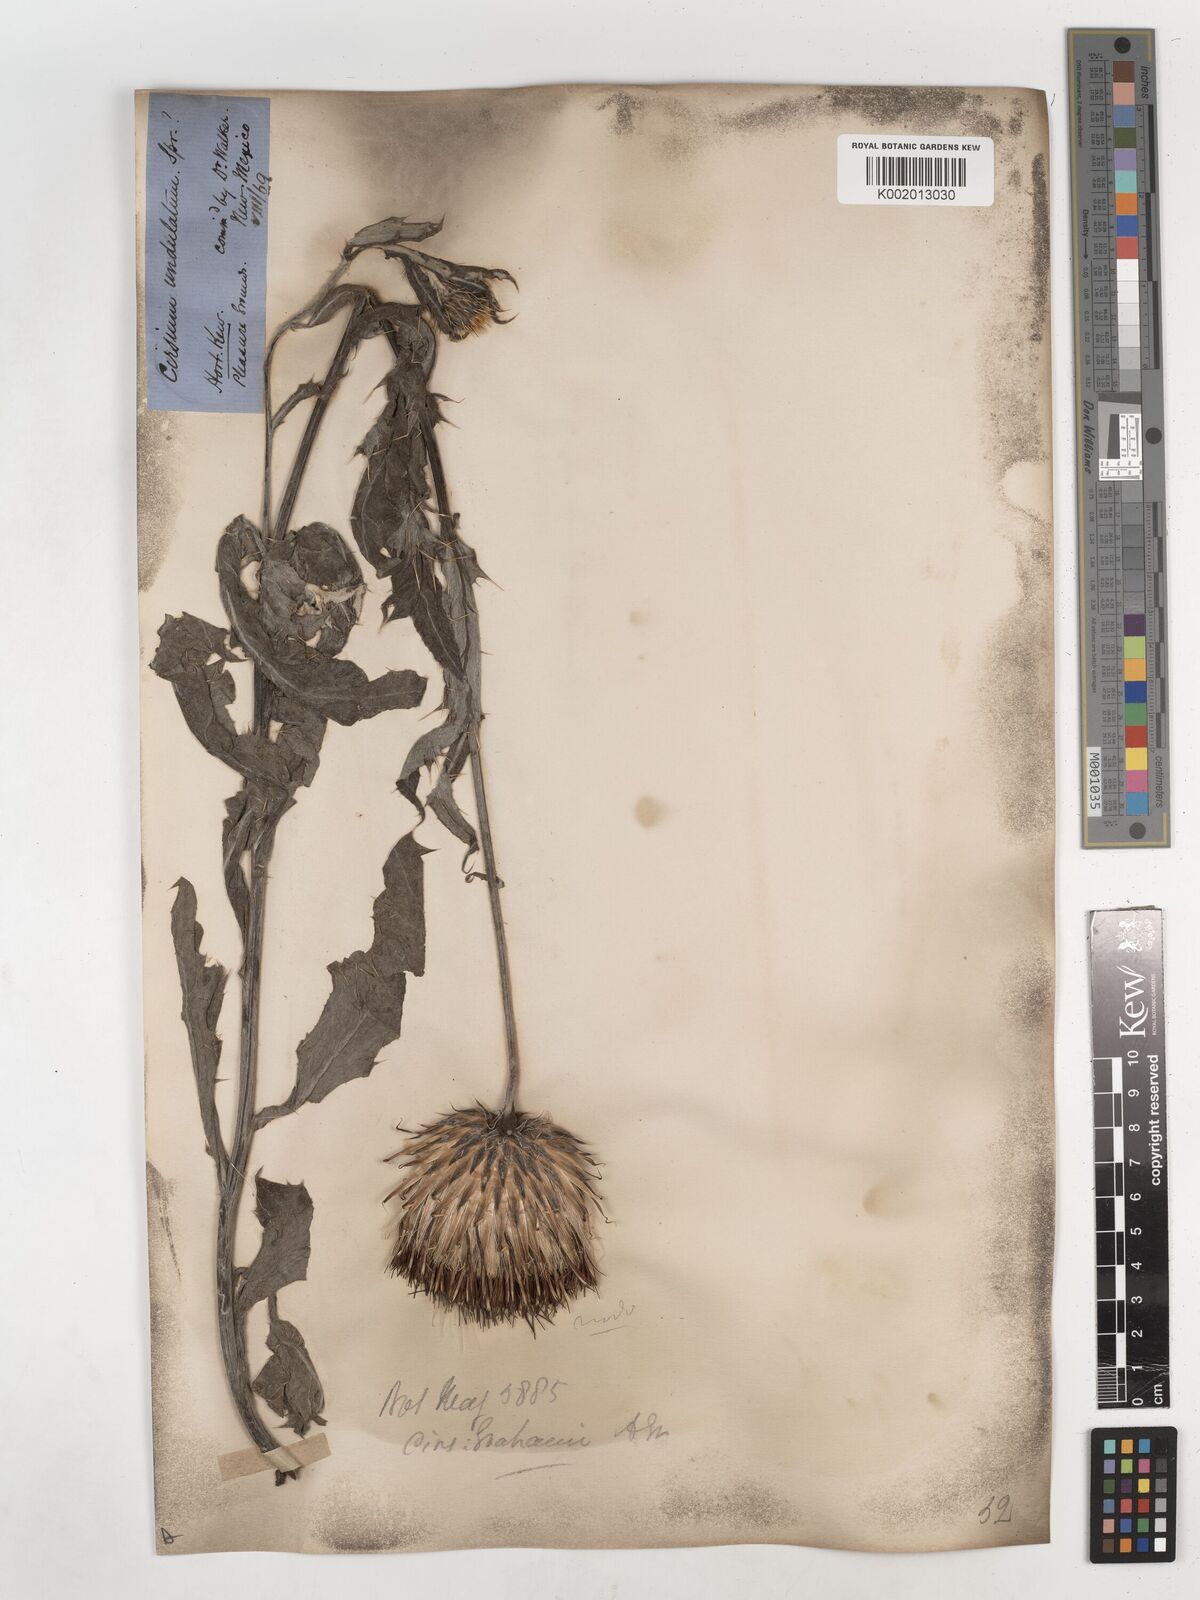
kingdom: Plantae
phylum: Tracheophyta
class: Magnoliopsida
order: Asterales
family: Asteraceae
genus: Cirsium
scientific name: Cirsium grahamii
